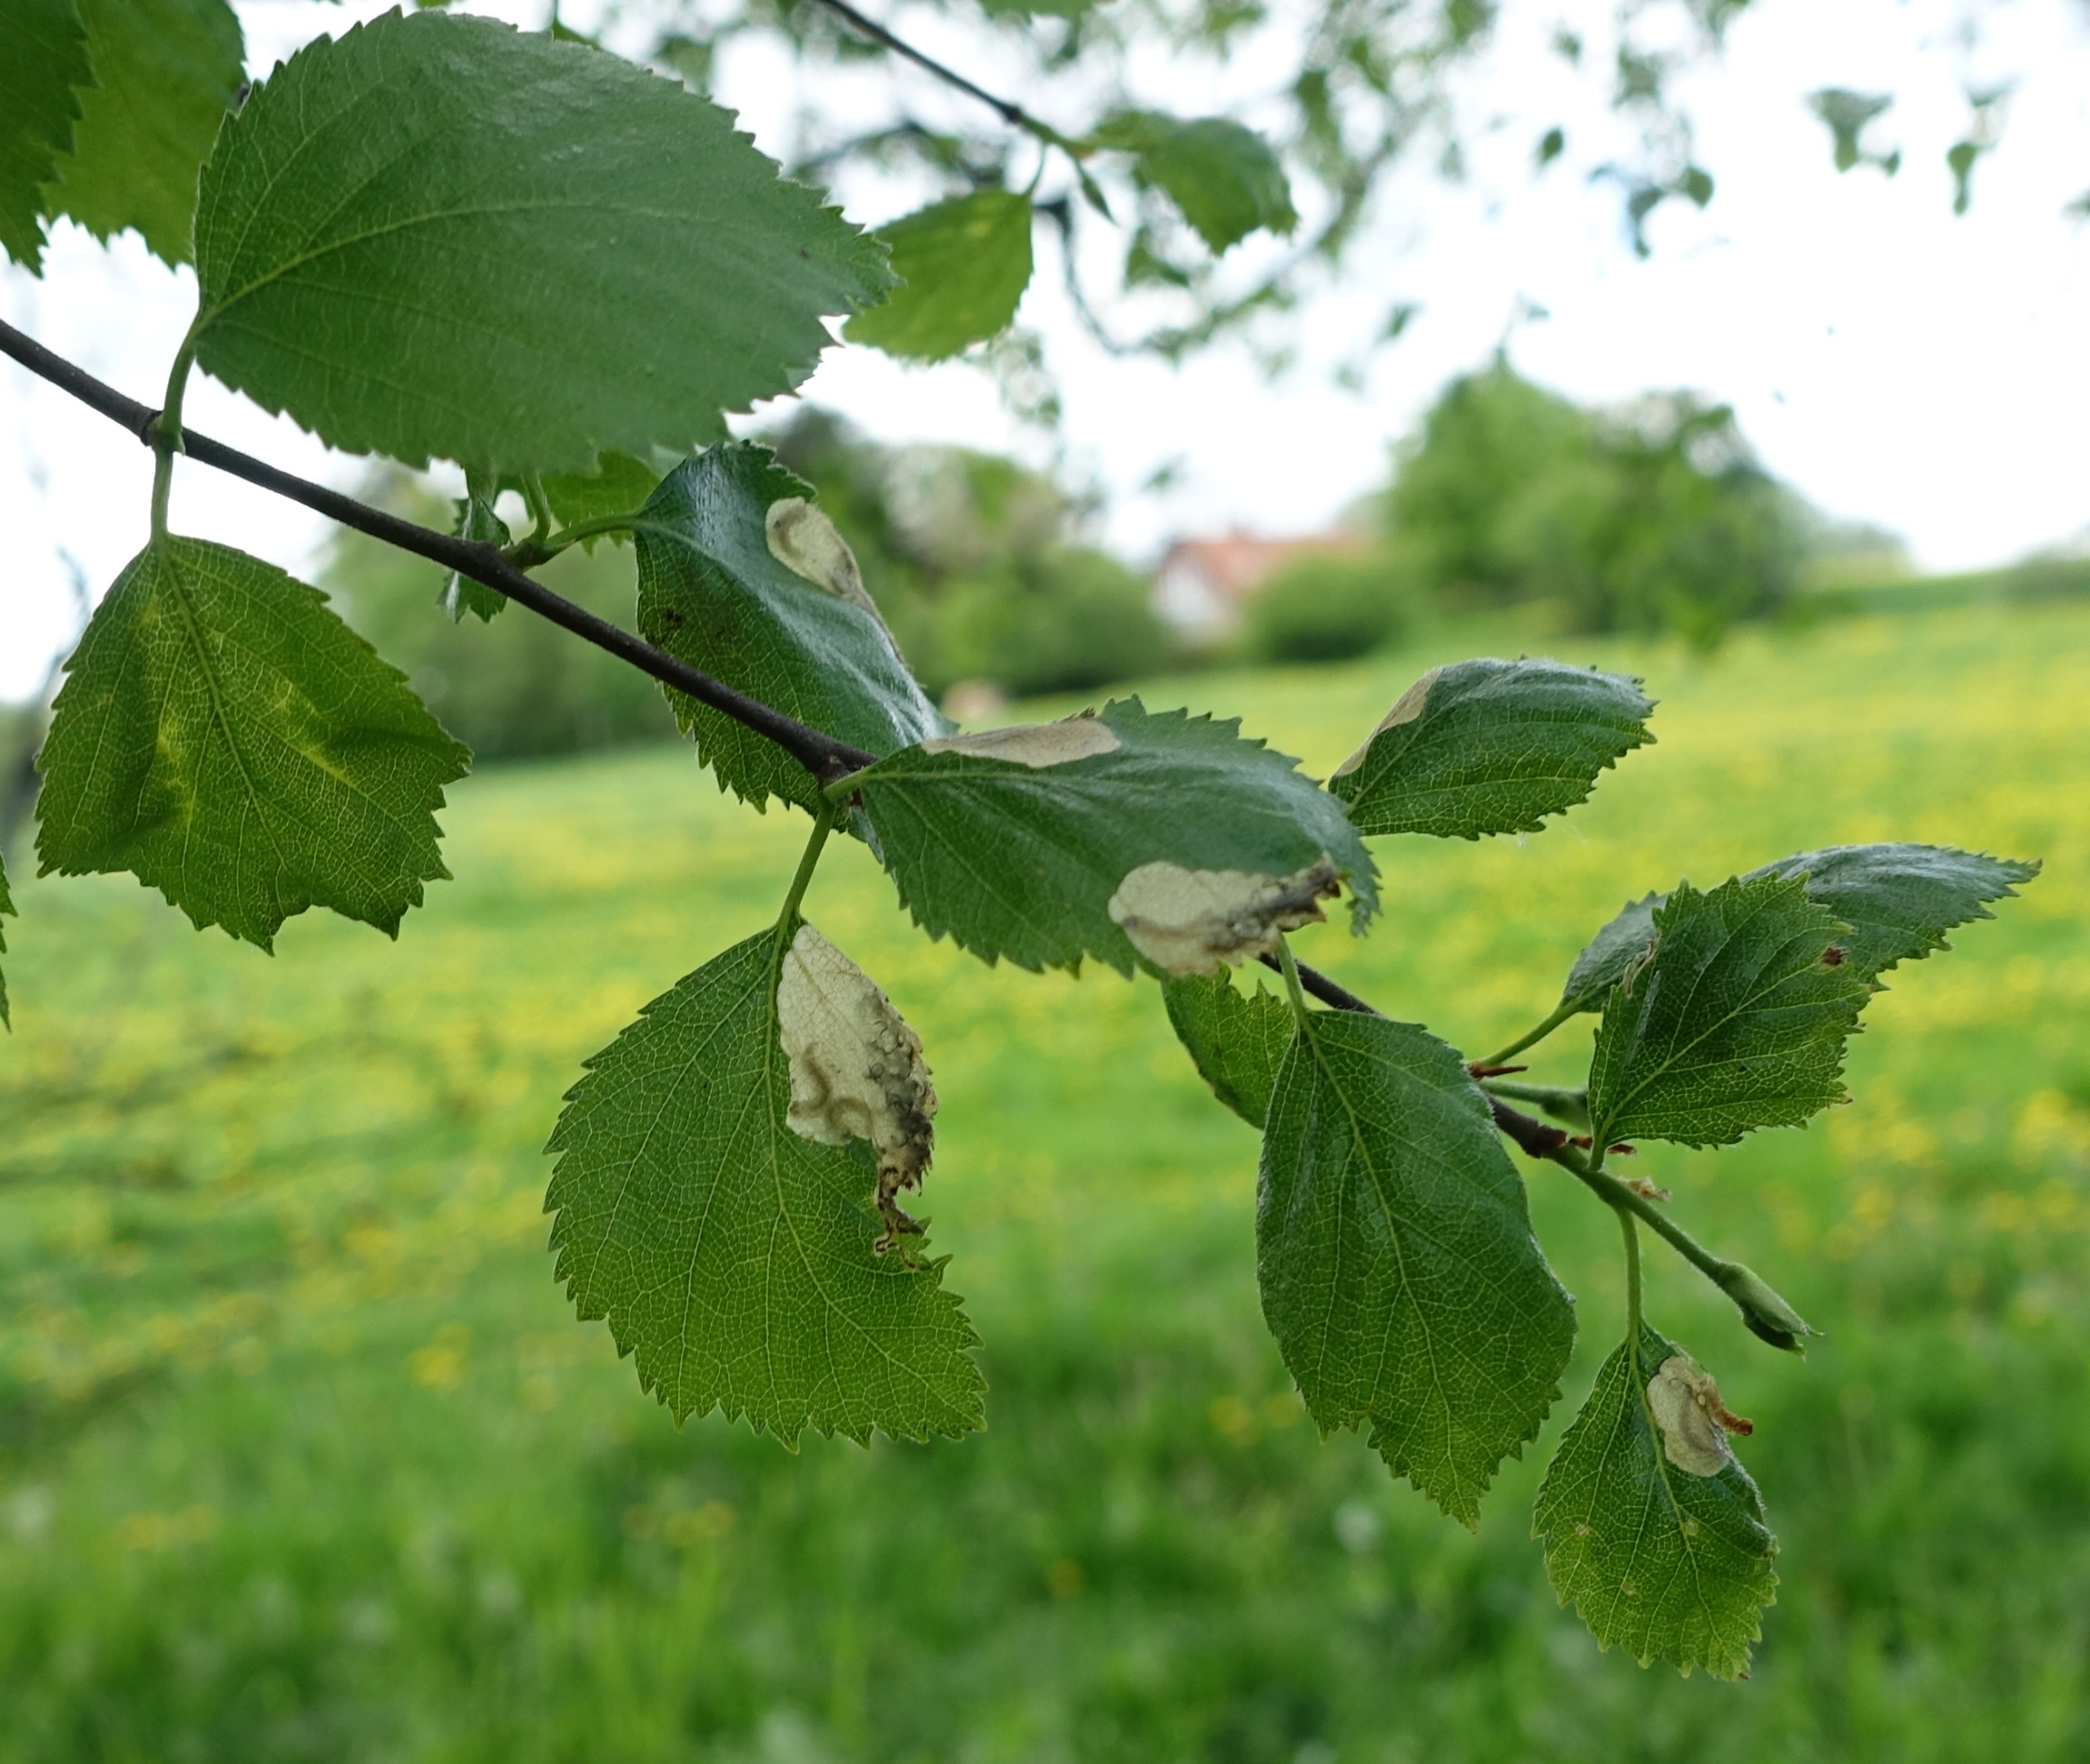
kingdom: Animalia
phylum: Arthropoda
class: Insecta
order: Lepidoptera
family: Eriocraniidae
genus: Eriocrania
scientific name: Eriocrania semipurpurella
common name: Birkeminérmøl
